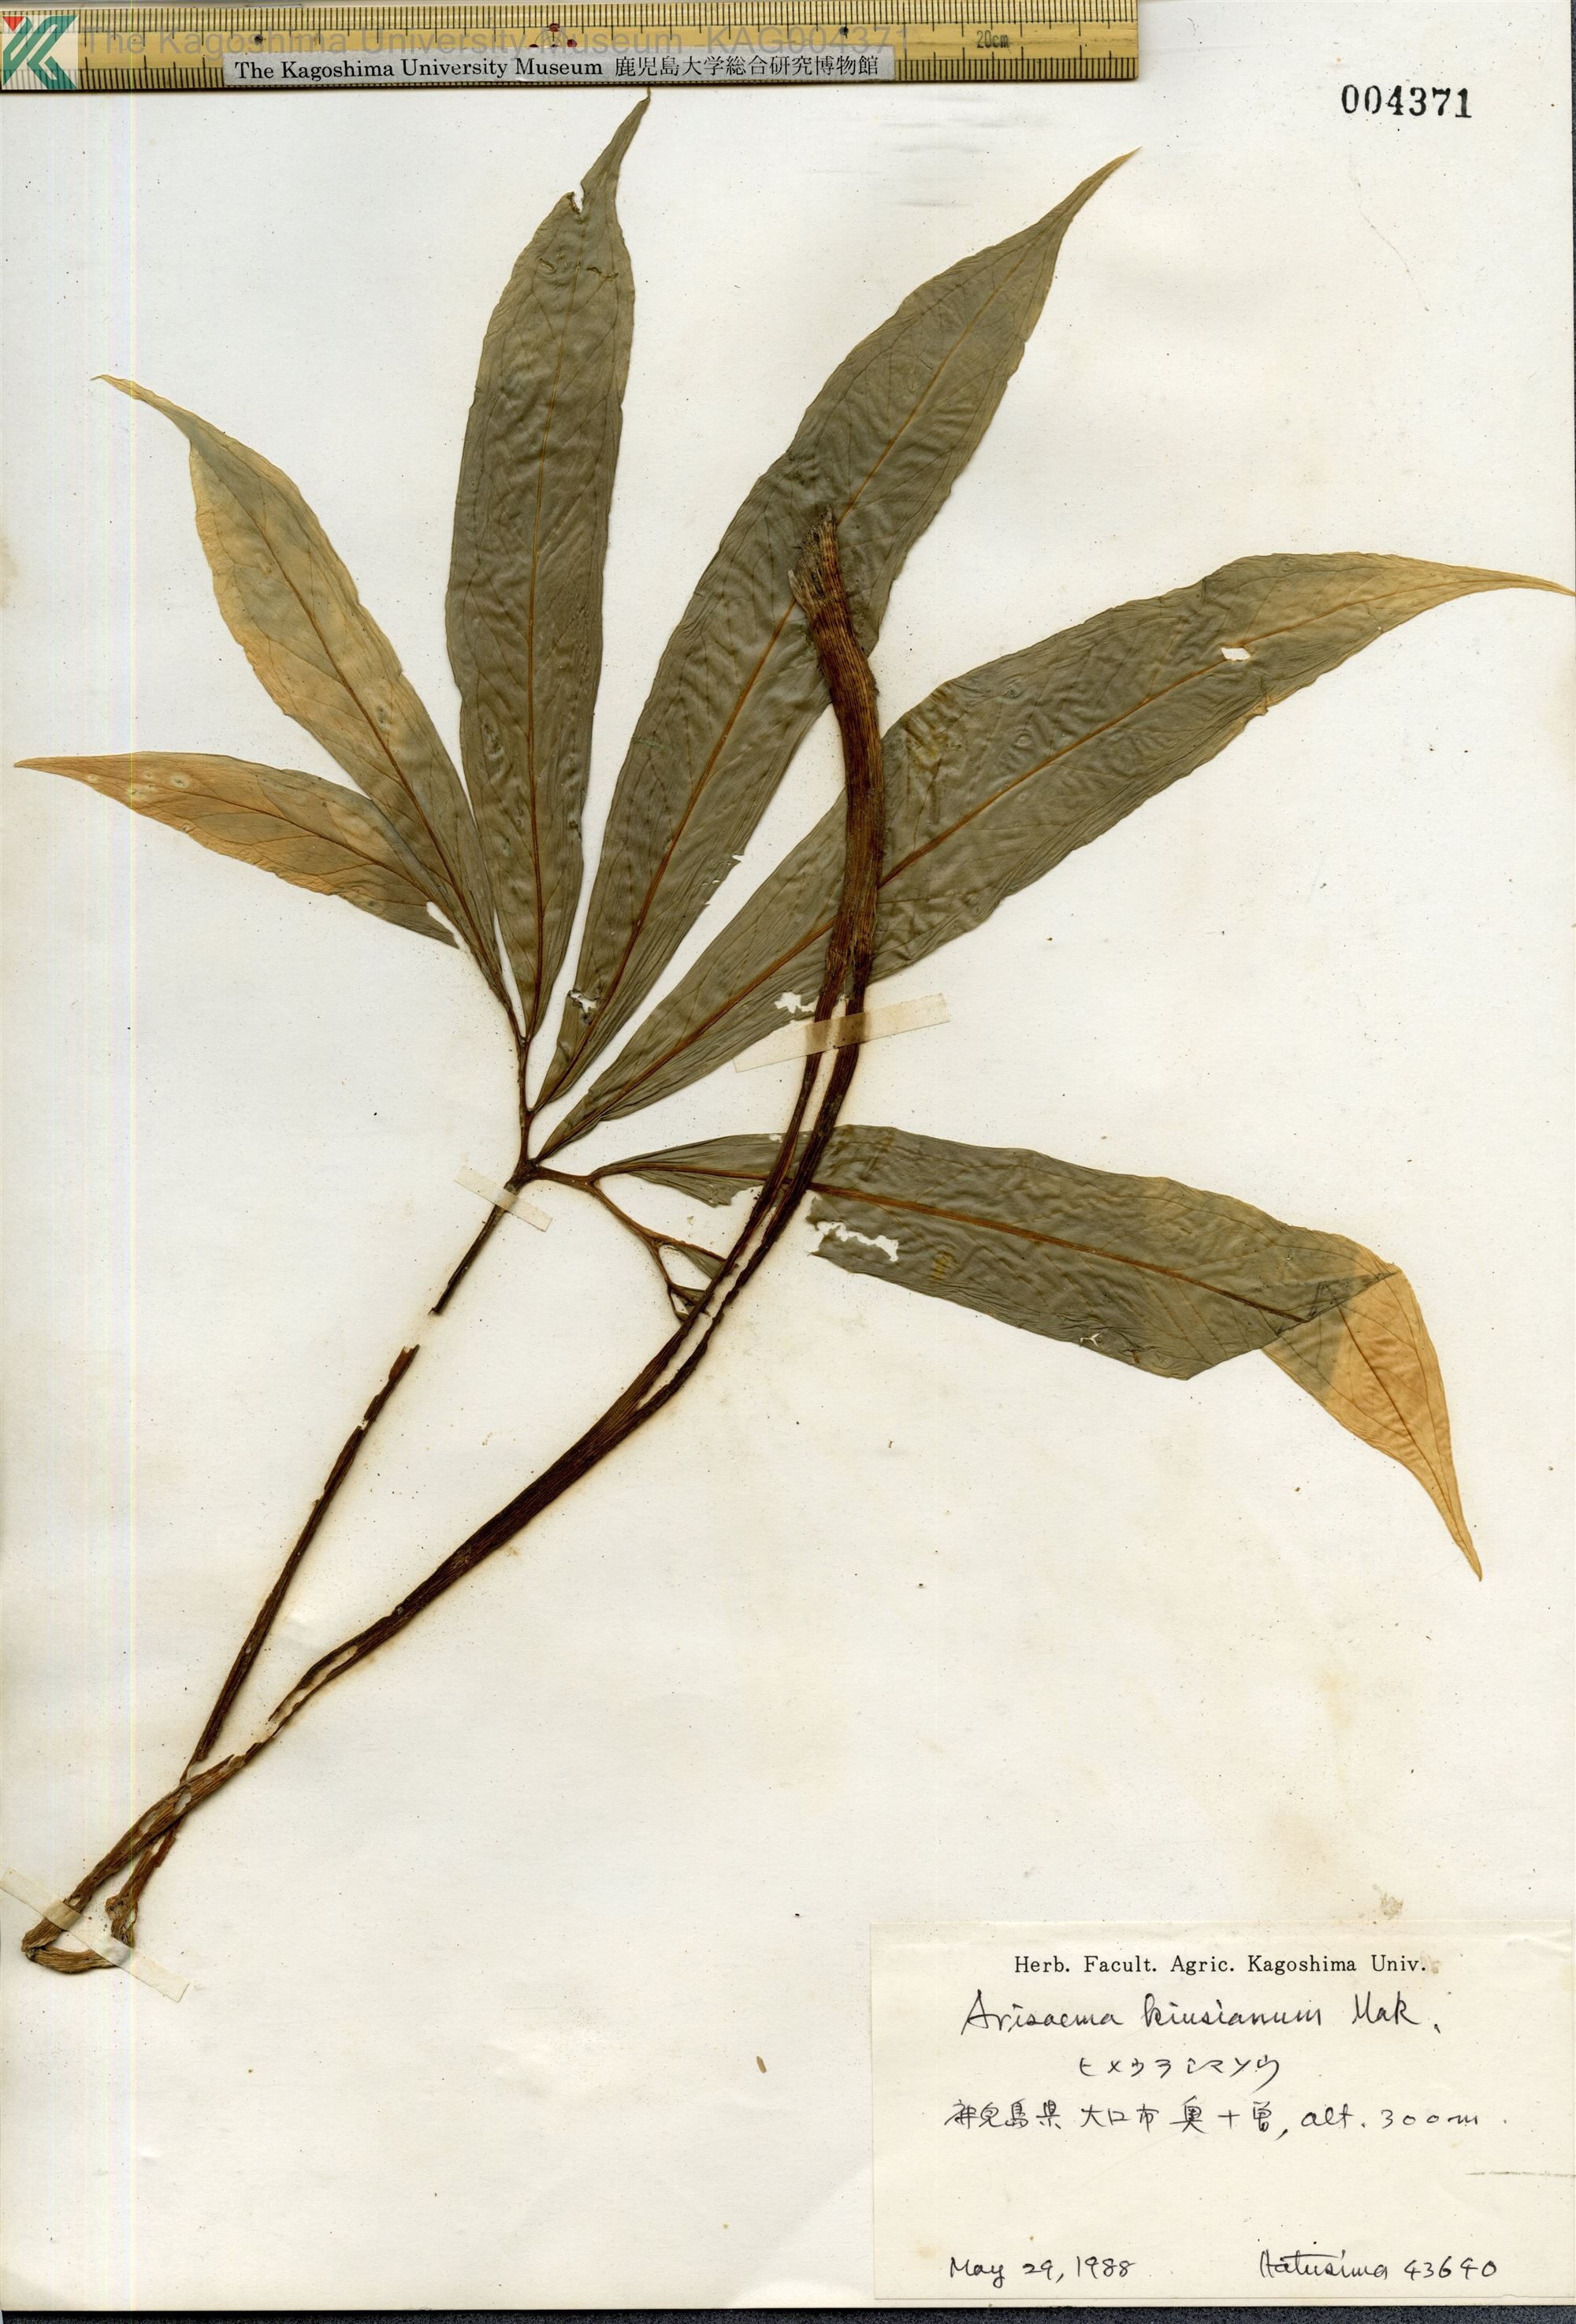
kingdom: Plantae
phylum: Tracheophyta
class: Liliopsida
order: Alismatales
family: Araceae
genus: Arisaema
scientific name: Arisaema kiushianum
